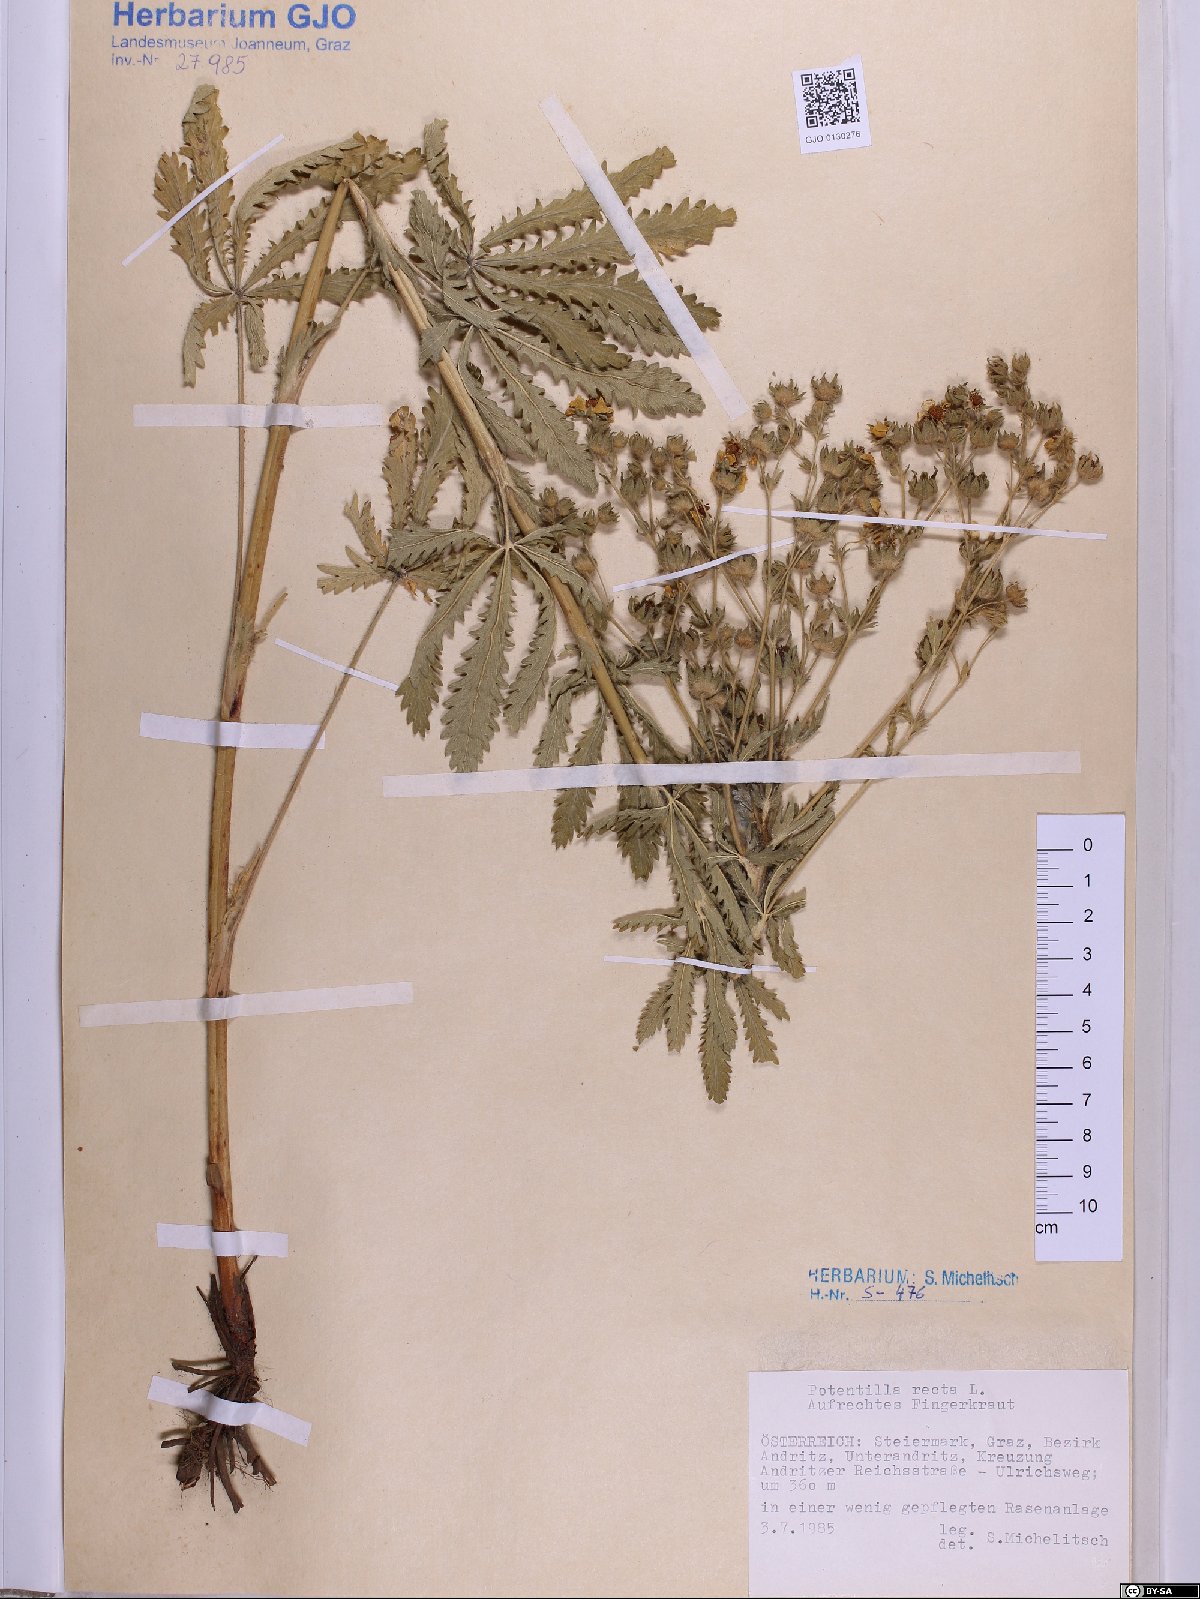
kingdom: Plantae
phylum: Tracheophyta
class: Magnoliopsida
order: Rosales
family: Rosaceae
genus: Potentilla
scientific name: Potentilla recta
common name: Sulphur cinquefoil
